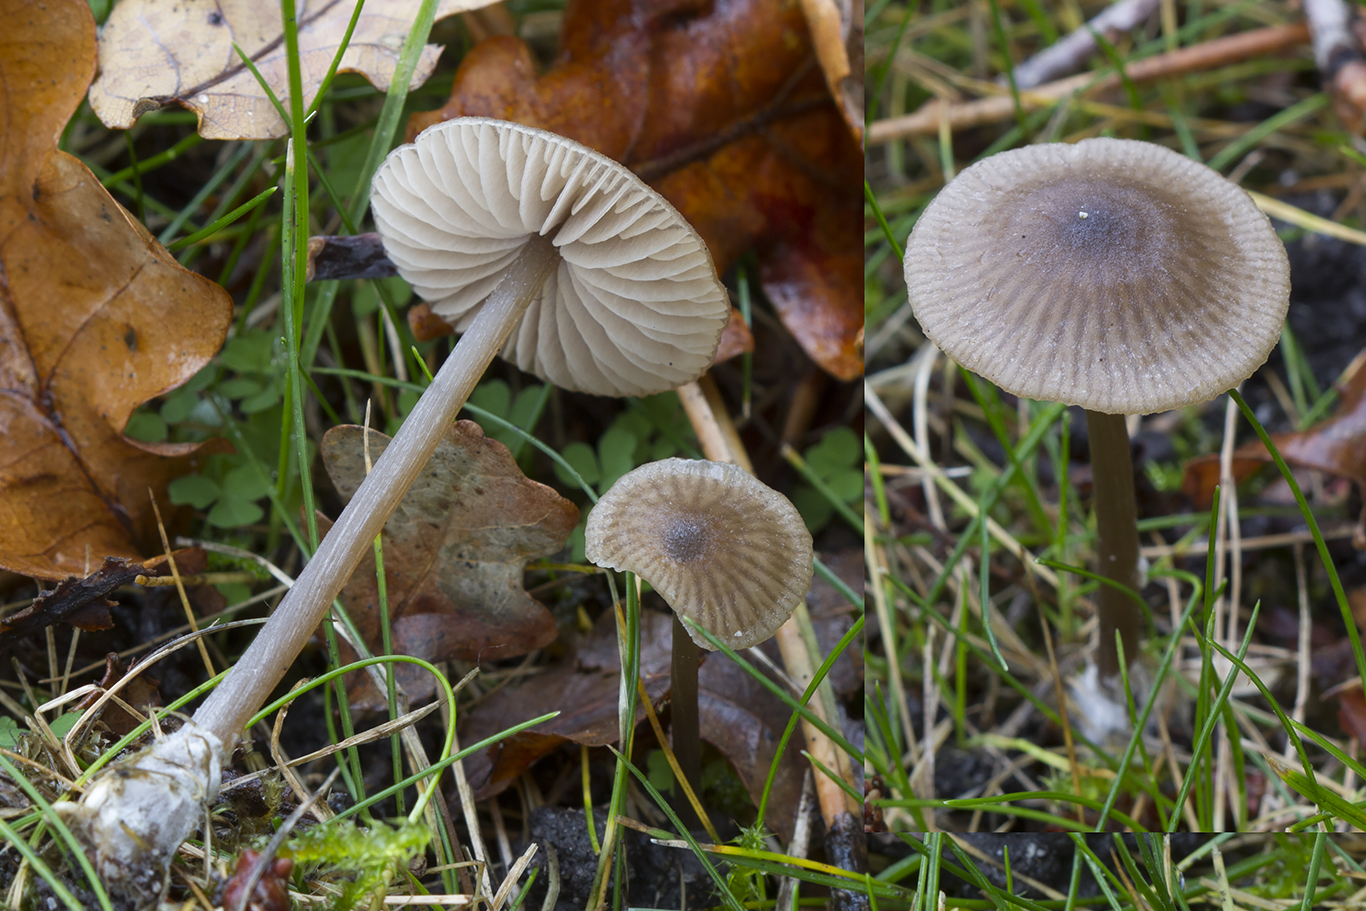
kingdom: Fungi
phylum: Basidiomycota
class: Agaricomycetes
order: Agaricales
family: Entolomataceae
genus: Entoloma
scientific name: Entoloma minutum
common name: liden rødblad
